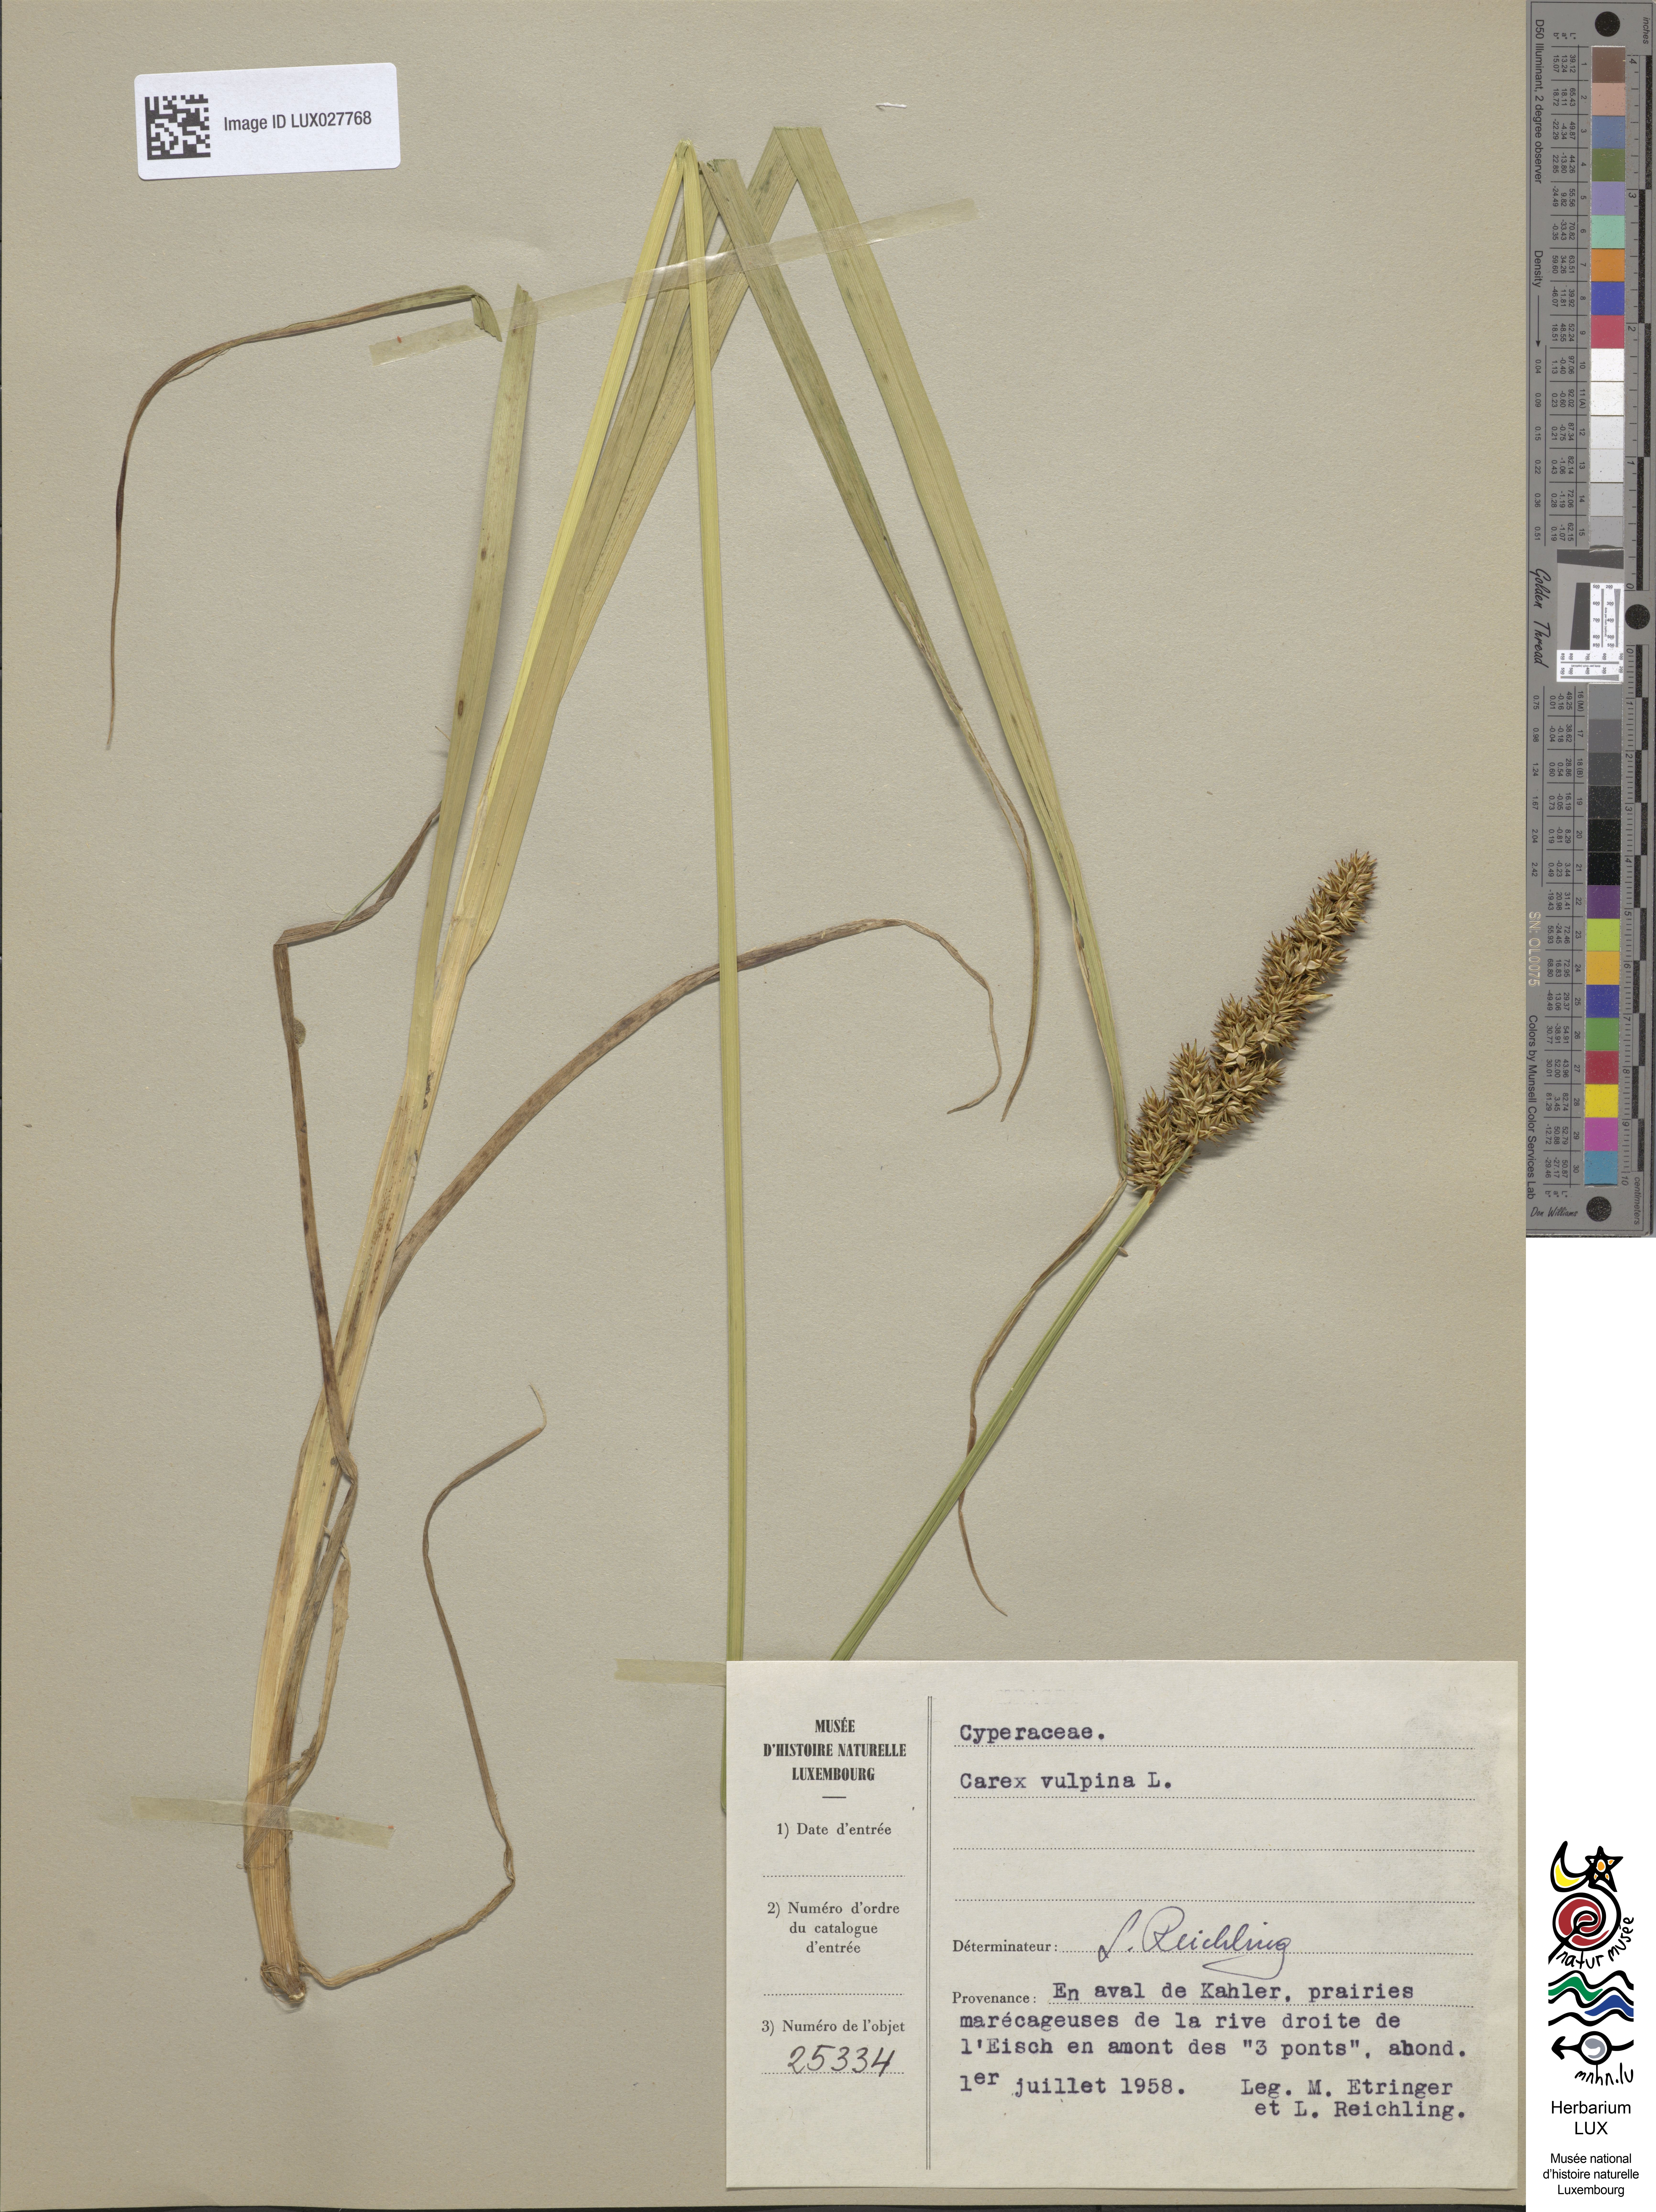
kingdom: Plantae
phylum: Tracheophyta
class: Liliopsida
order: Poales
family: Cyperaceae
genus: Carex
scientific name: Carex vulpina
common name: True fox-sedge
